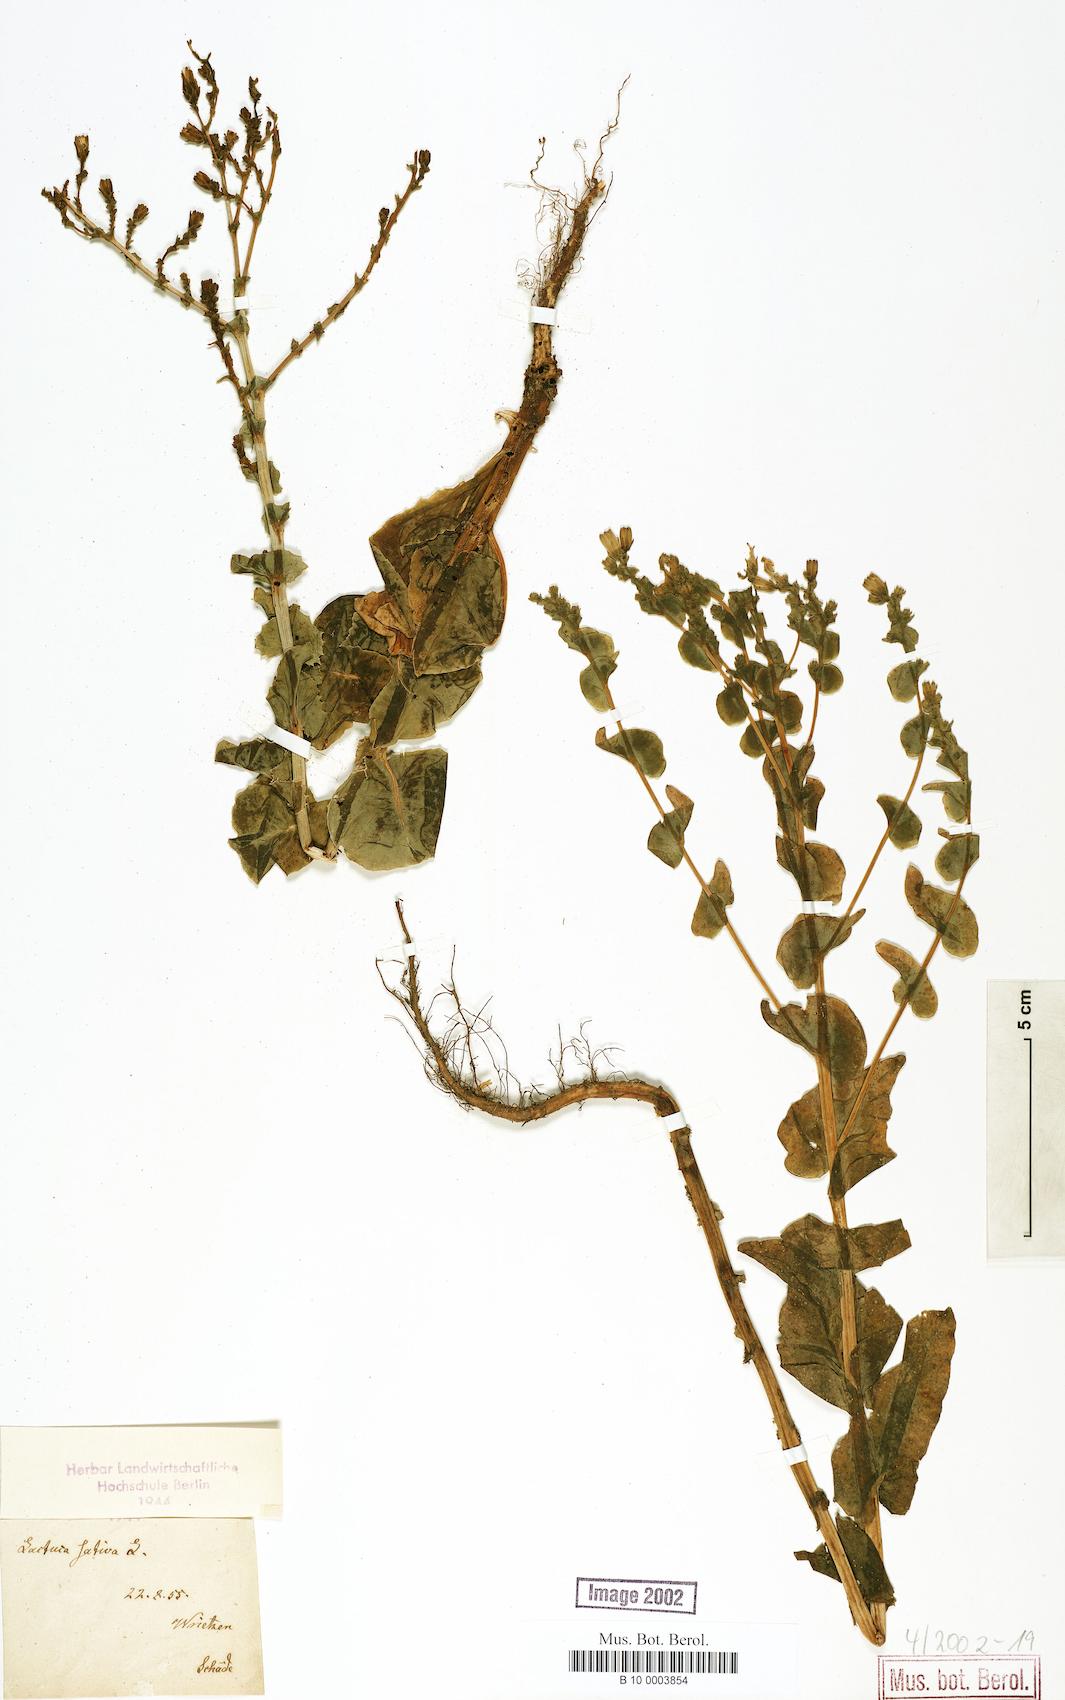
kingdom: Plantae
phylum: Tracheophyta
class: Magnoliopsida
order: Asterales
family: Asteraceae
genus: Lactuca
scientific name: Lactuca sativa
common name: Garden lettuce
